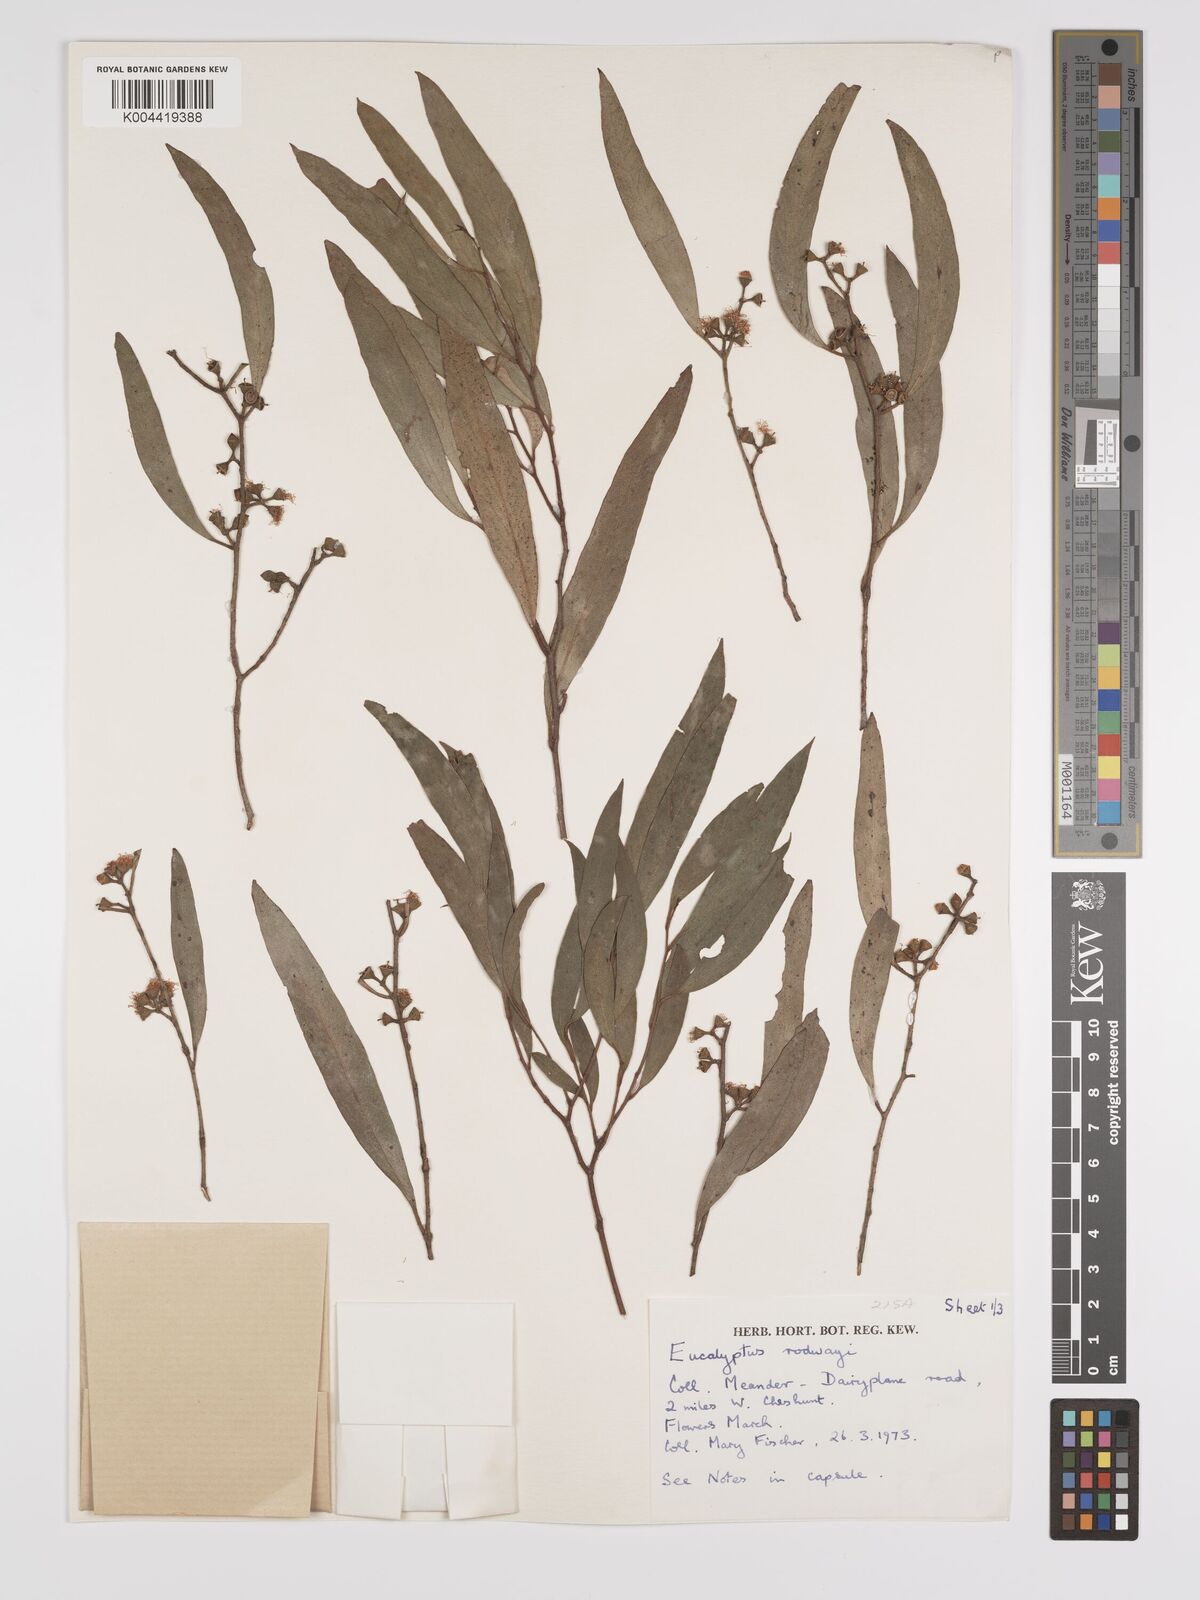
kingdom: Plantae
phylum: Tracheophyta
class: Magnoliopsida
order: Myrtales
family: Myrtaceae
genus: Eucalyptus
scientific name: Eucalyptus rodwayi
